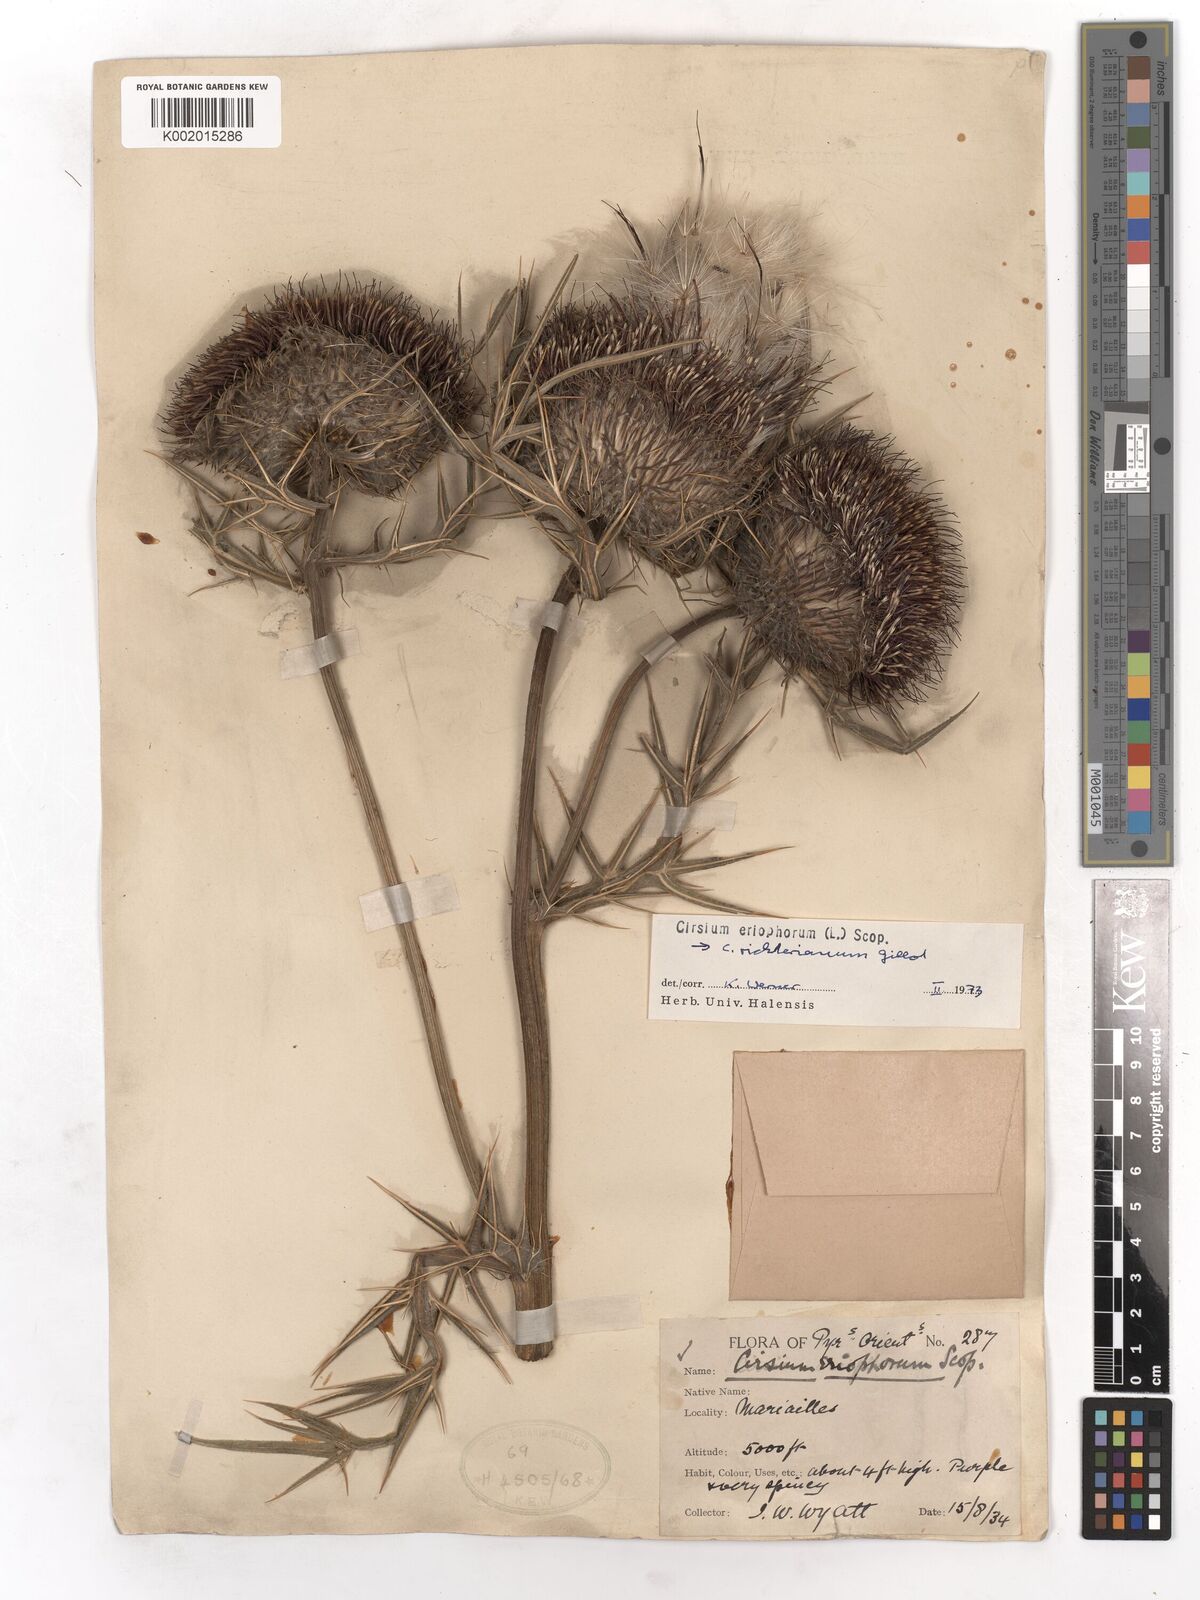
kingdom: Plantae
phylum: Tracheophyta
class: Magnoliopsida
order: Asterales
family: Asteraceae
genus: Lophiolepis
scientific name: Lophiolepis eriophora
